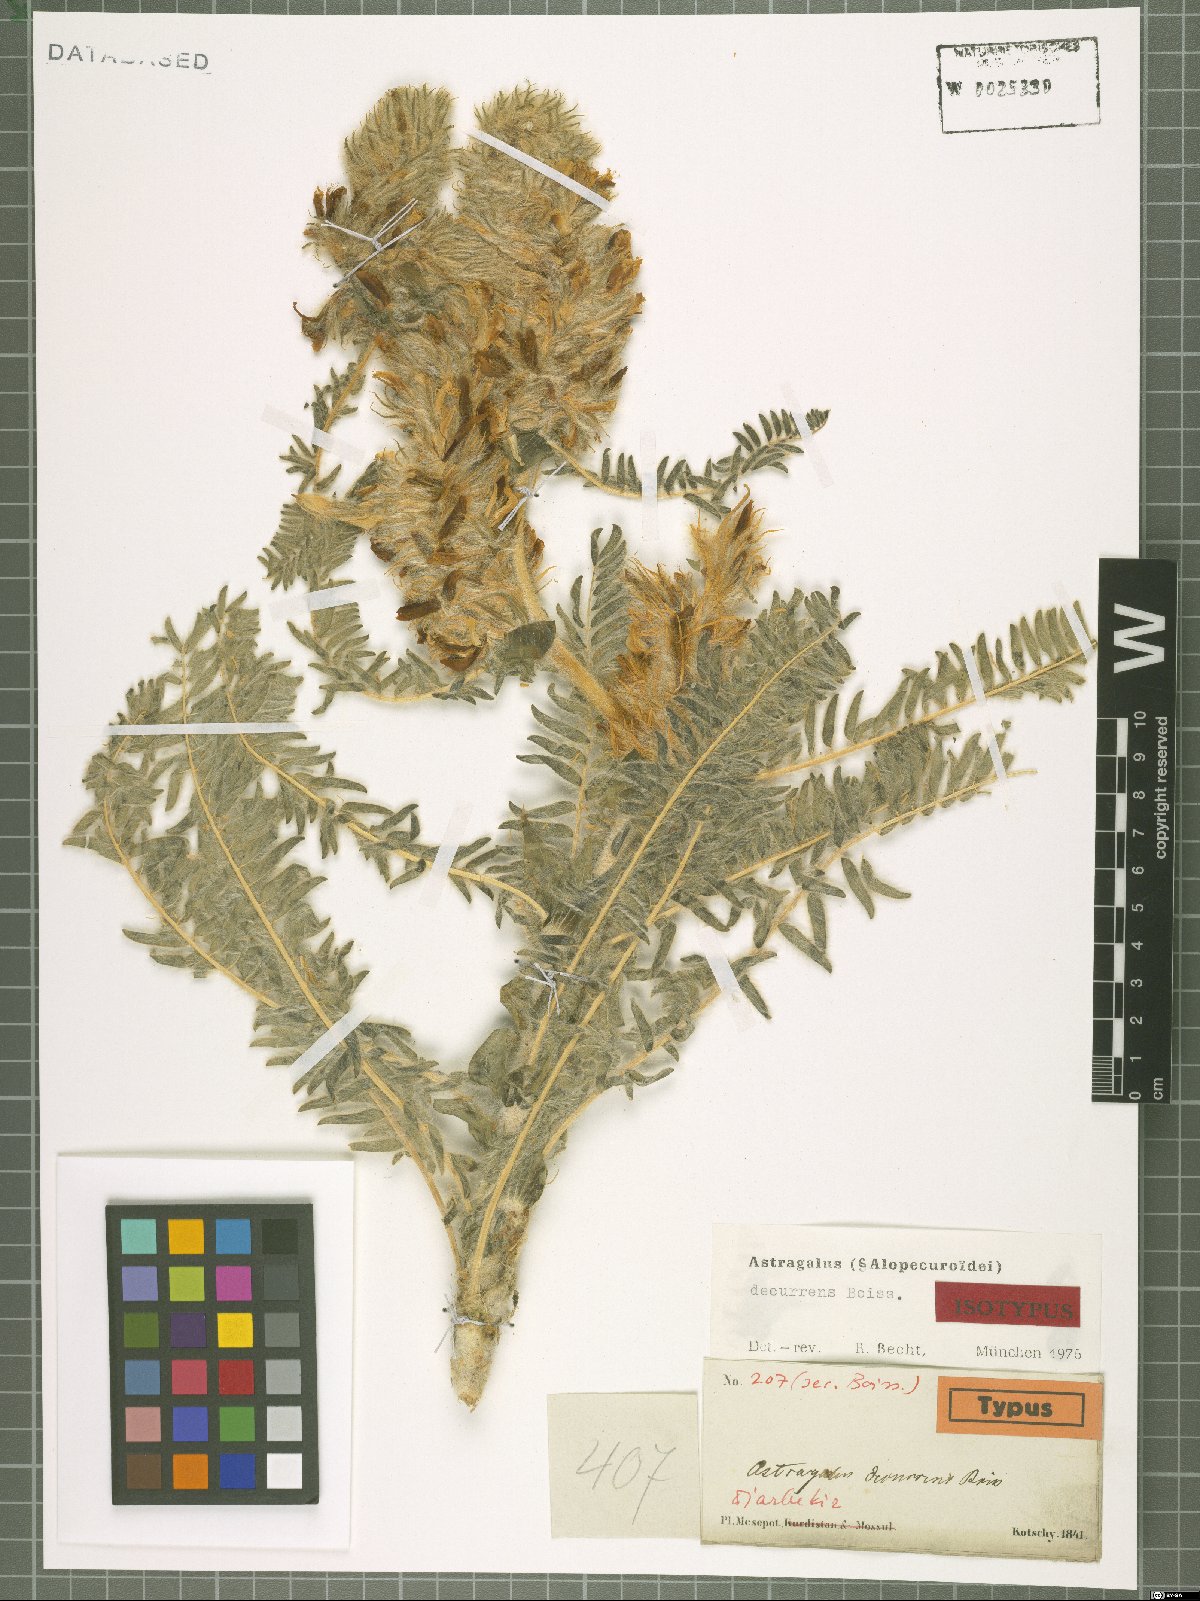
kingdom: Plantae
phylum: Tracheophyta
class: Magnoliopsida
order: Fabales
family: Fabaceae
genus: Astragalus
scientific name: Astragalus decurrens
